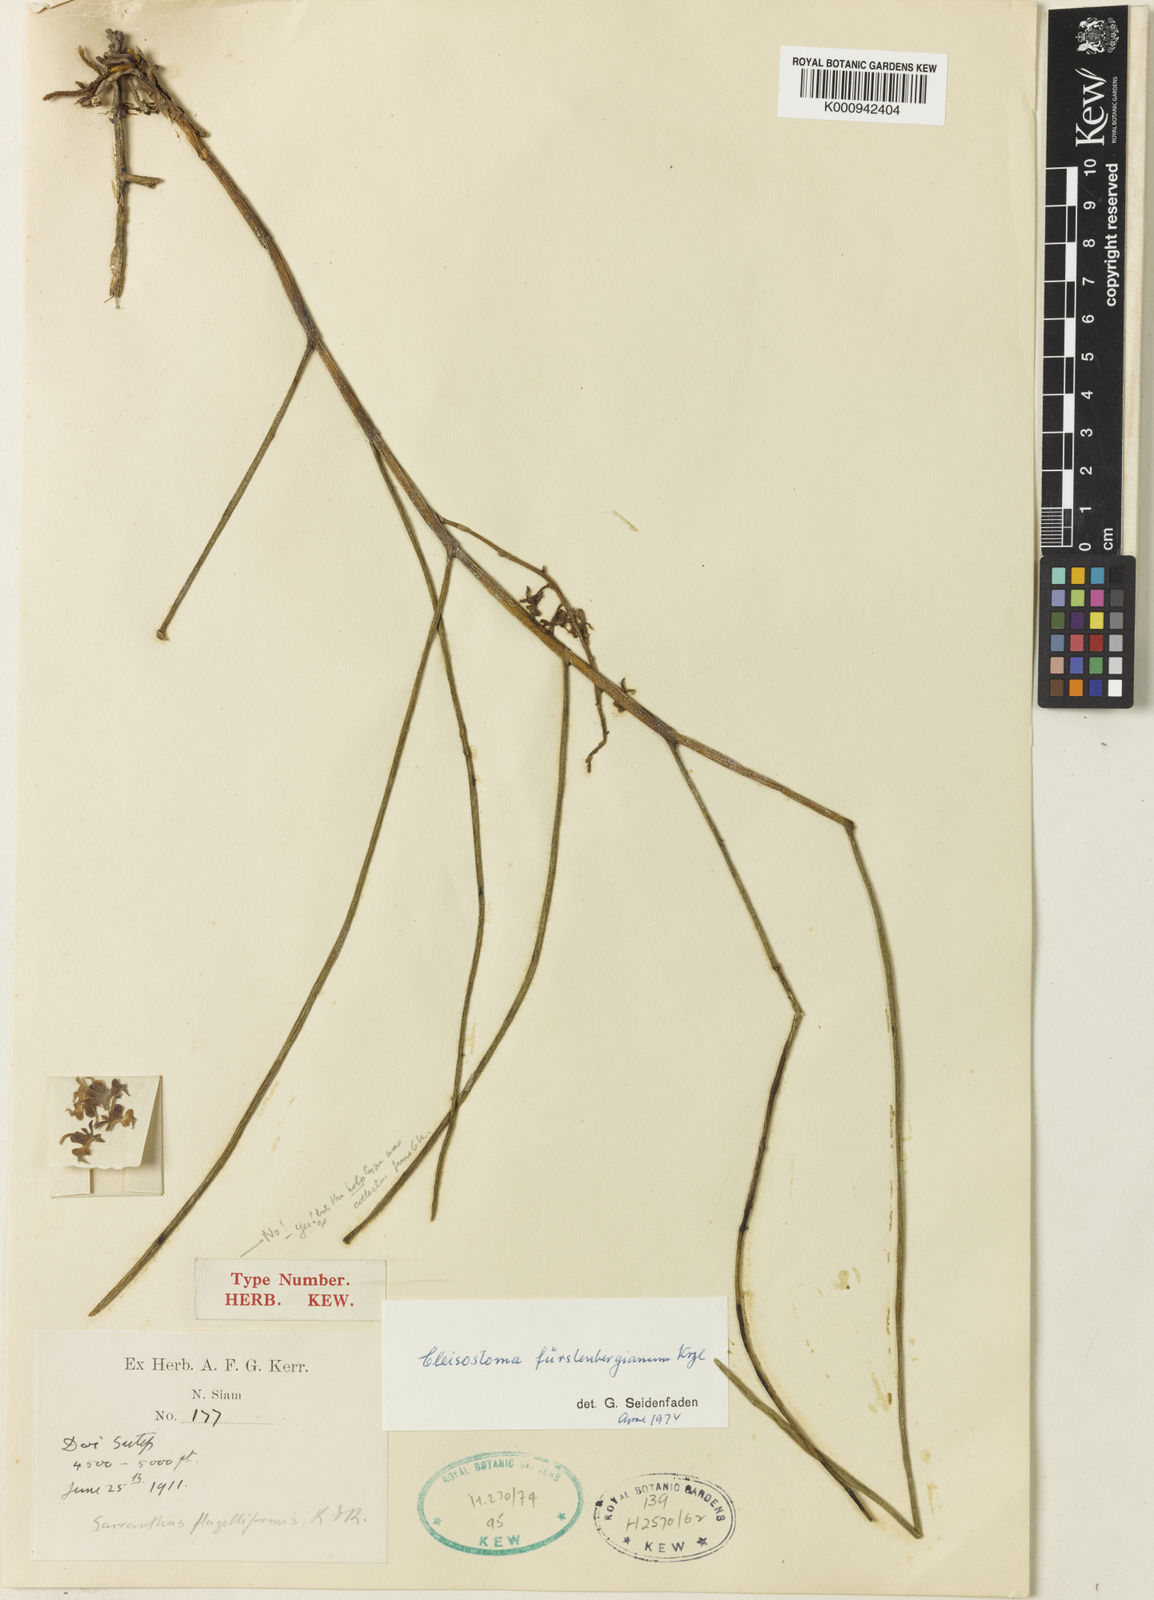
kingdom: Plantae
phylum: Tracheophyta
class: Liliopsida
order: Asparagales
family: Orchidaceae
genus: Cleisostoma
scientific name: Cleisostoma fuerstenbergianum
